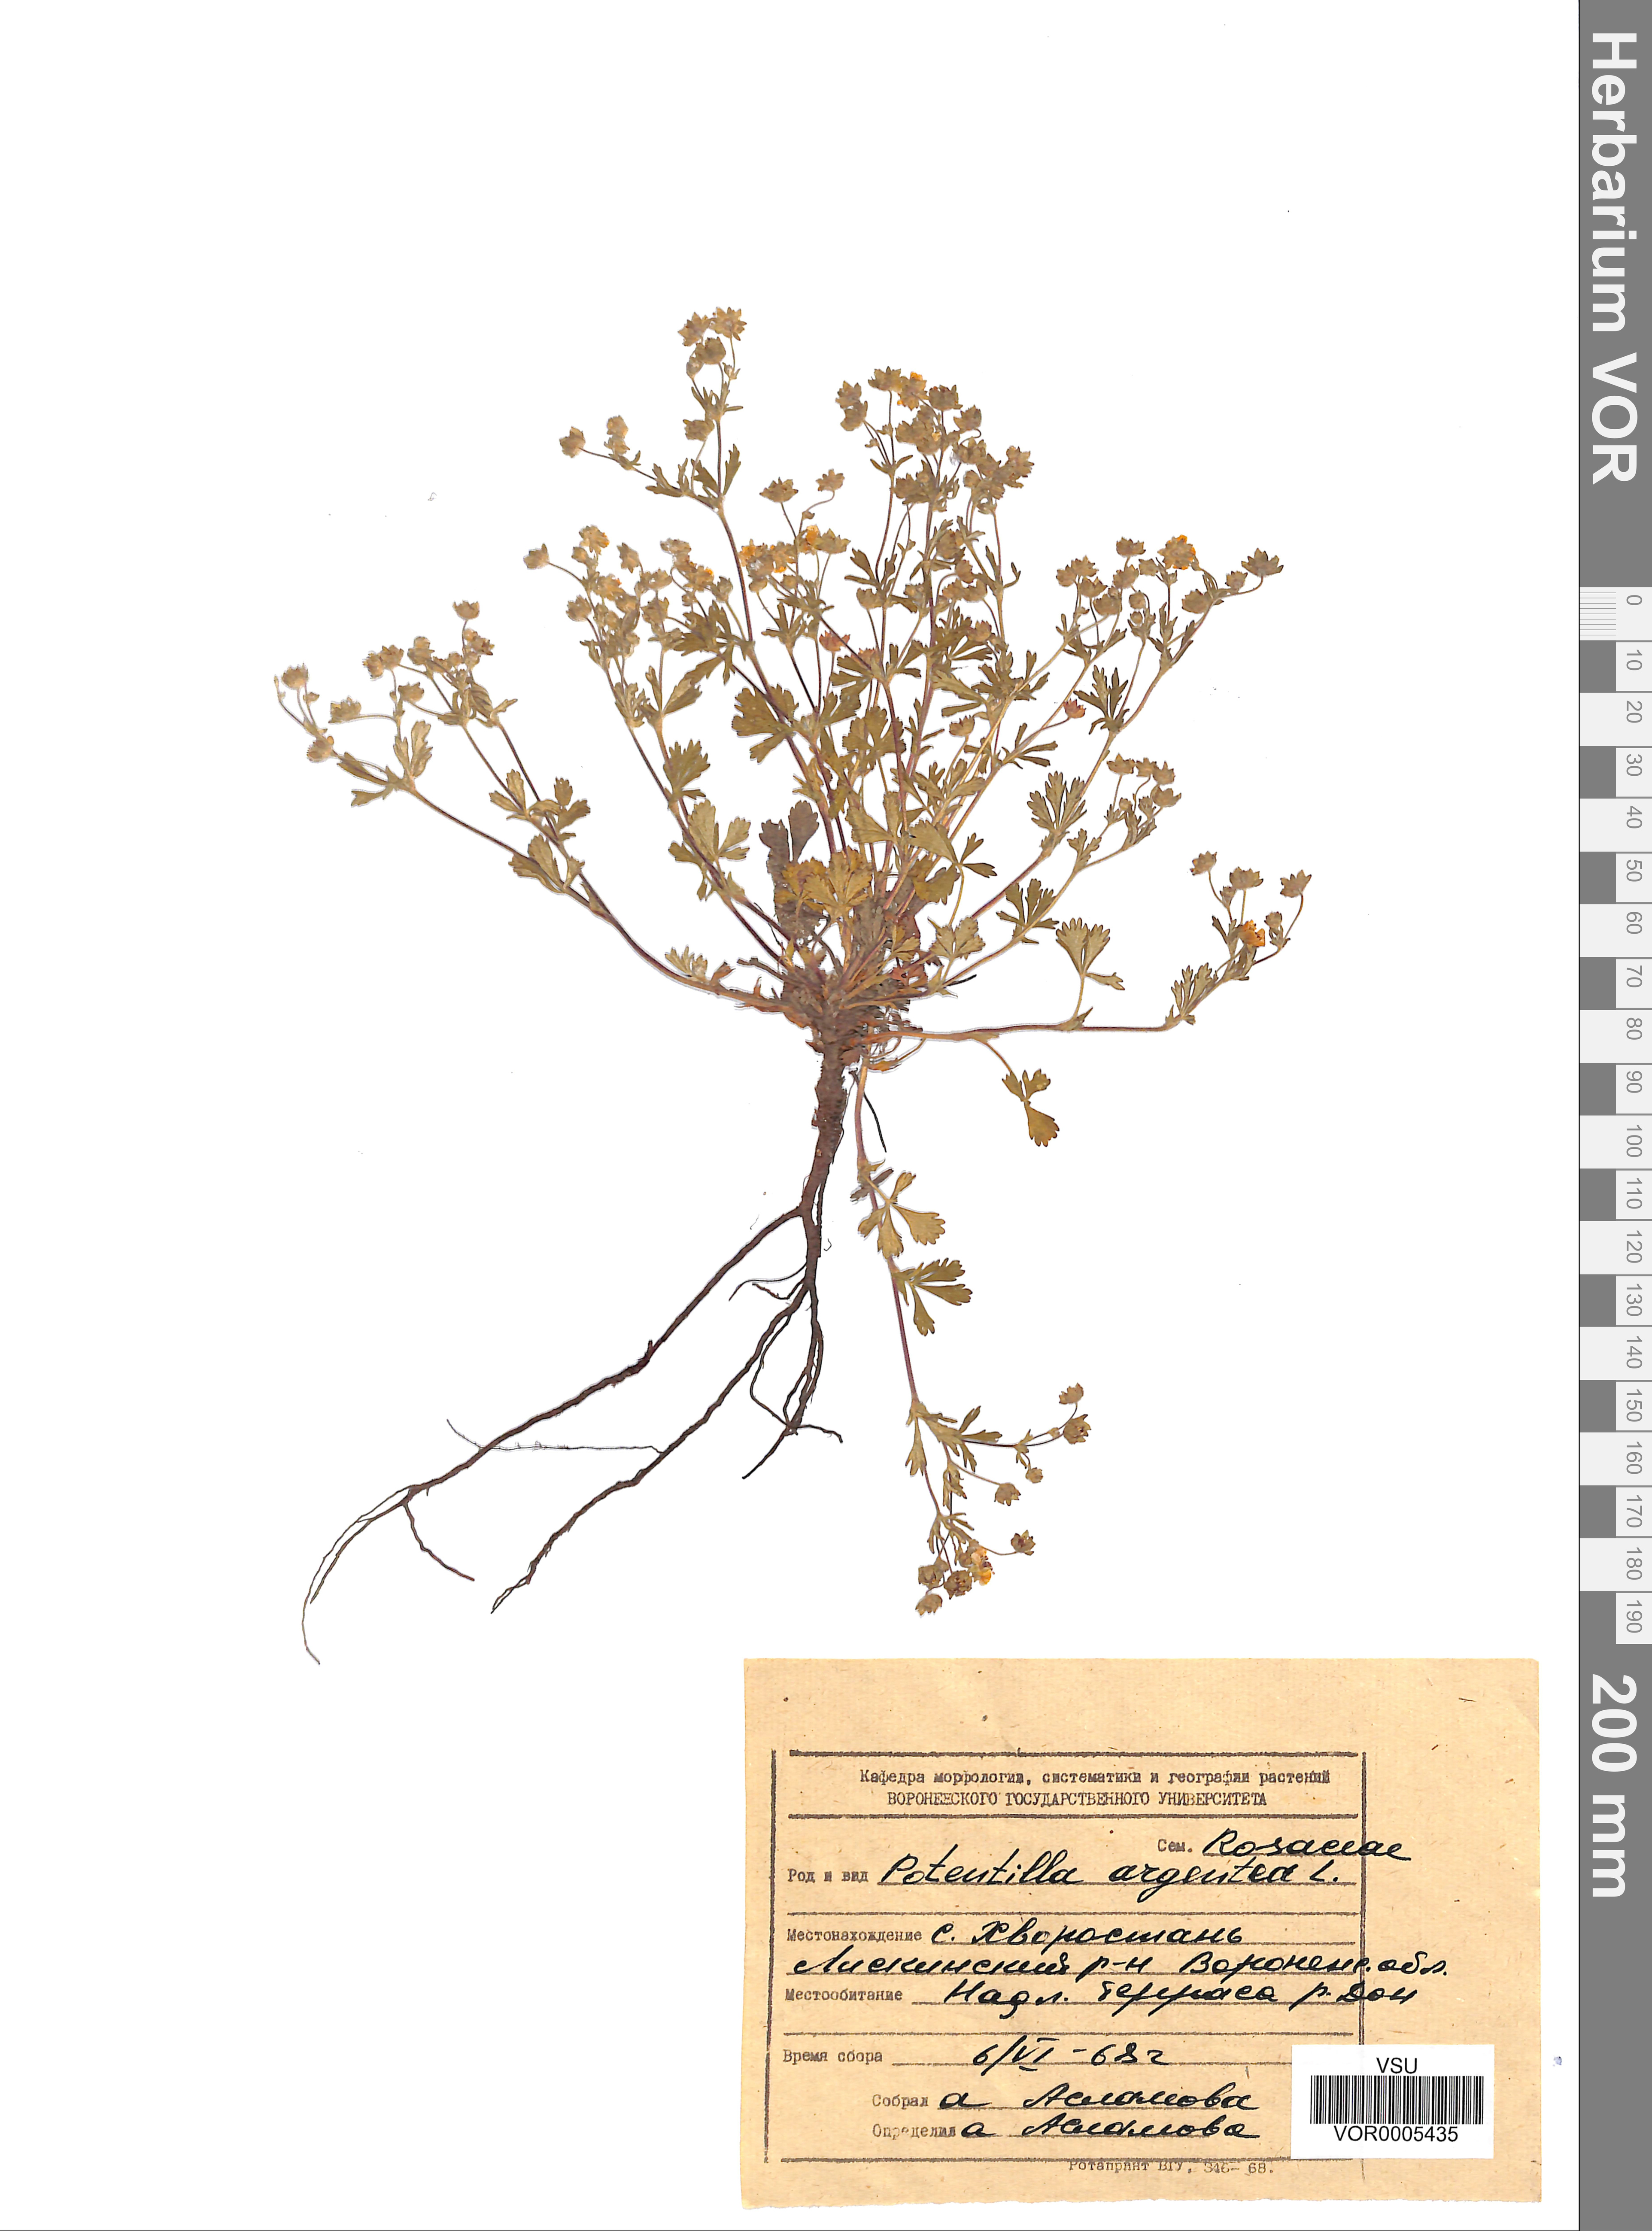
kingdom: Plantae
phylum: Tracheophyta
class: Magnoliopsida
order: Rosales
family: Rosaceae
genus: Potentilla
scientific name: Potentilla collina
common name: Palmleaf cinquefoil
